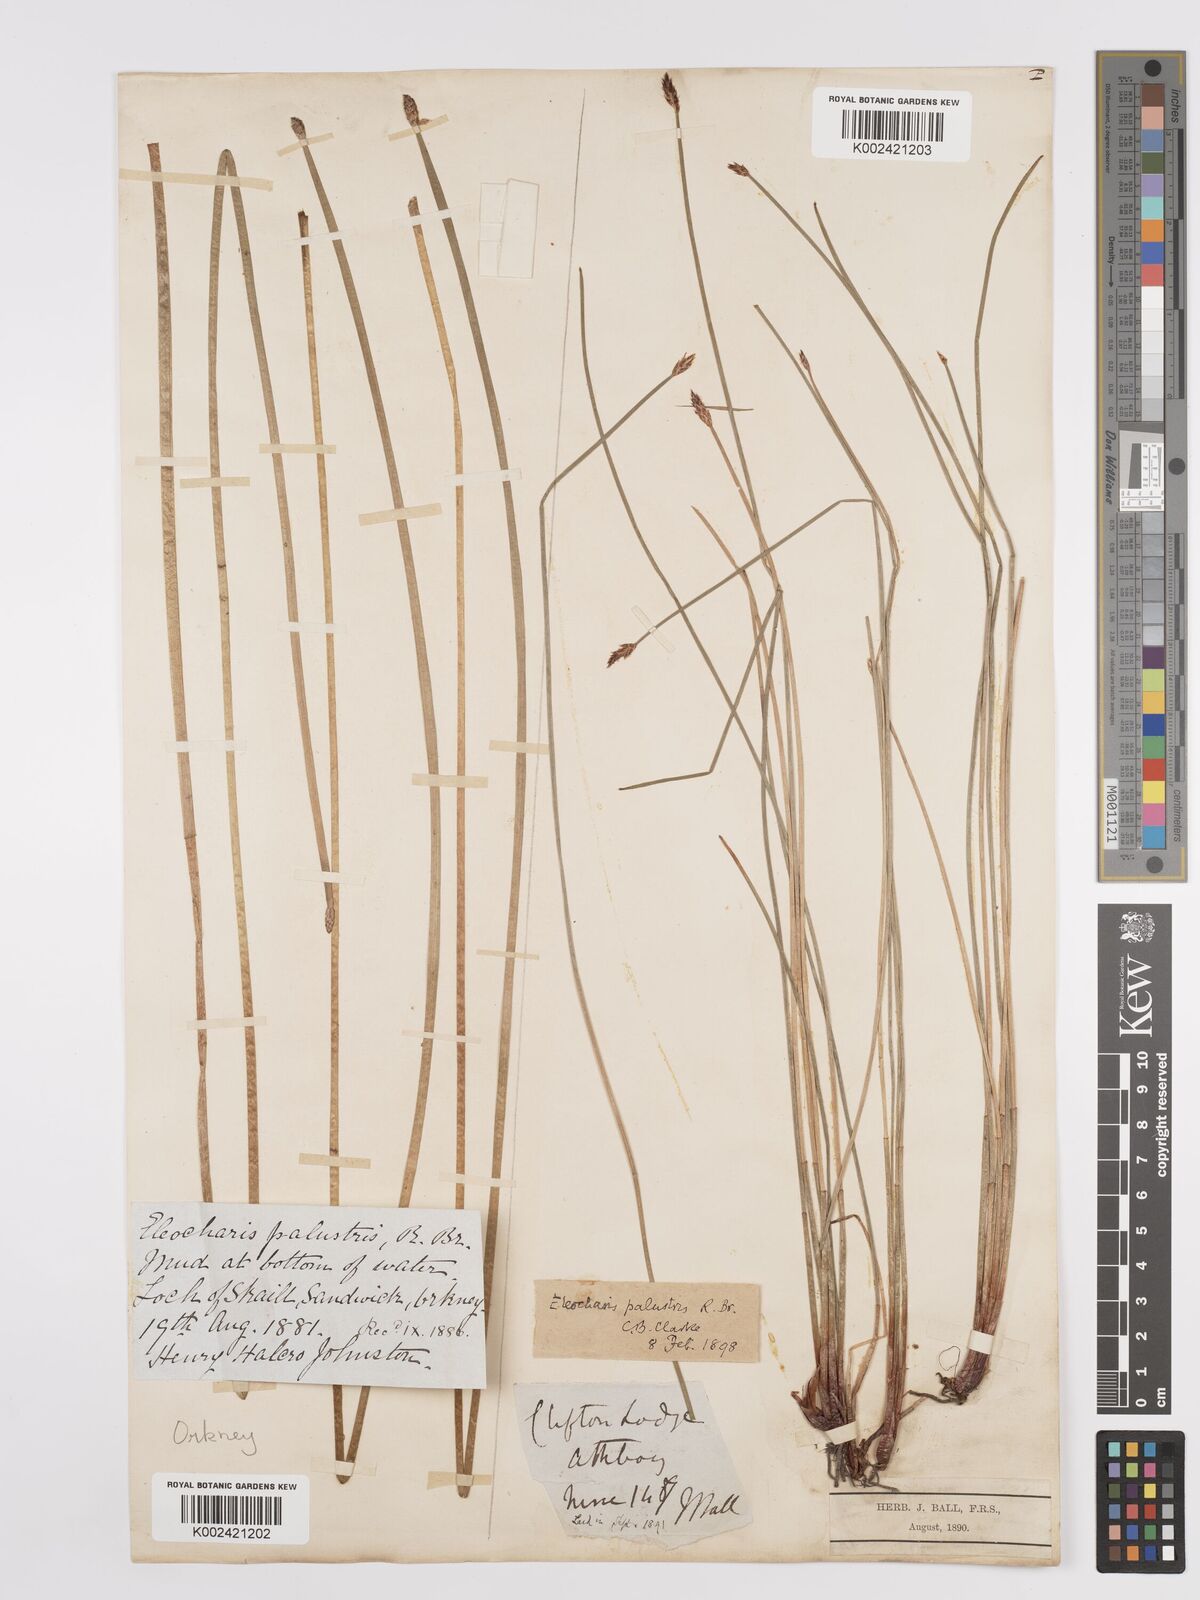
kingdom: Plantae
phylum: Tracheophyta
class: Liliopsida
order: Poales
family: Cyperaceae
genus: Eleocharis
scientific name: Eleocharis palustris
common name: Common spike-rush
